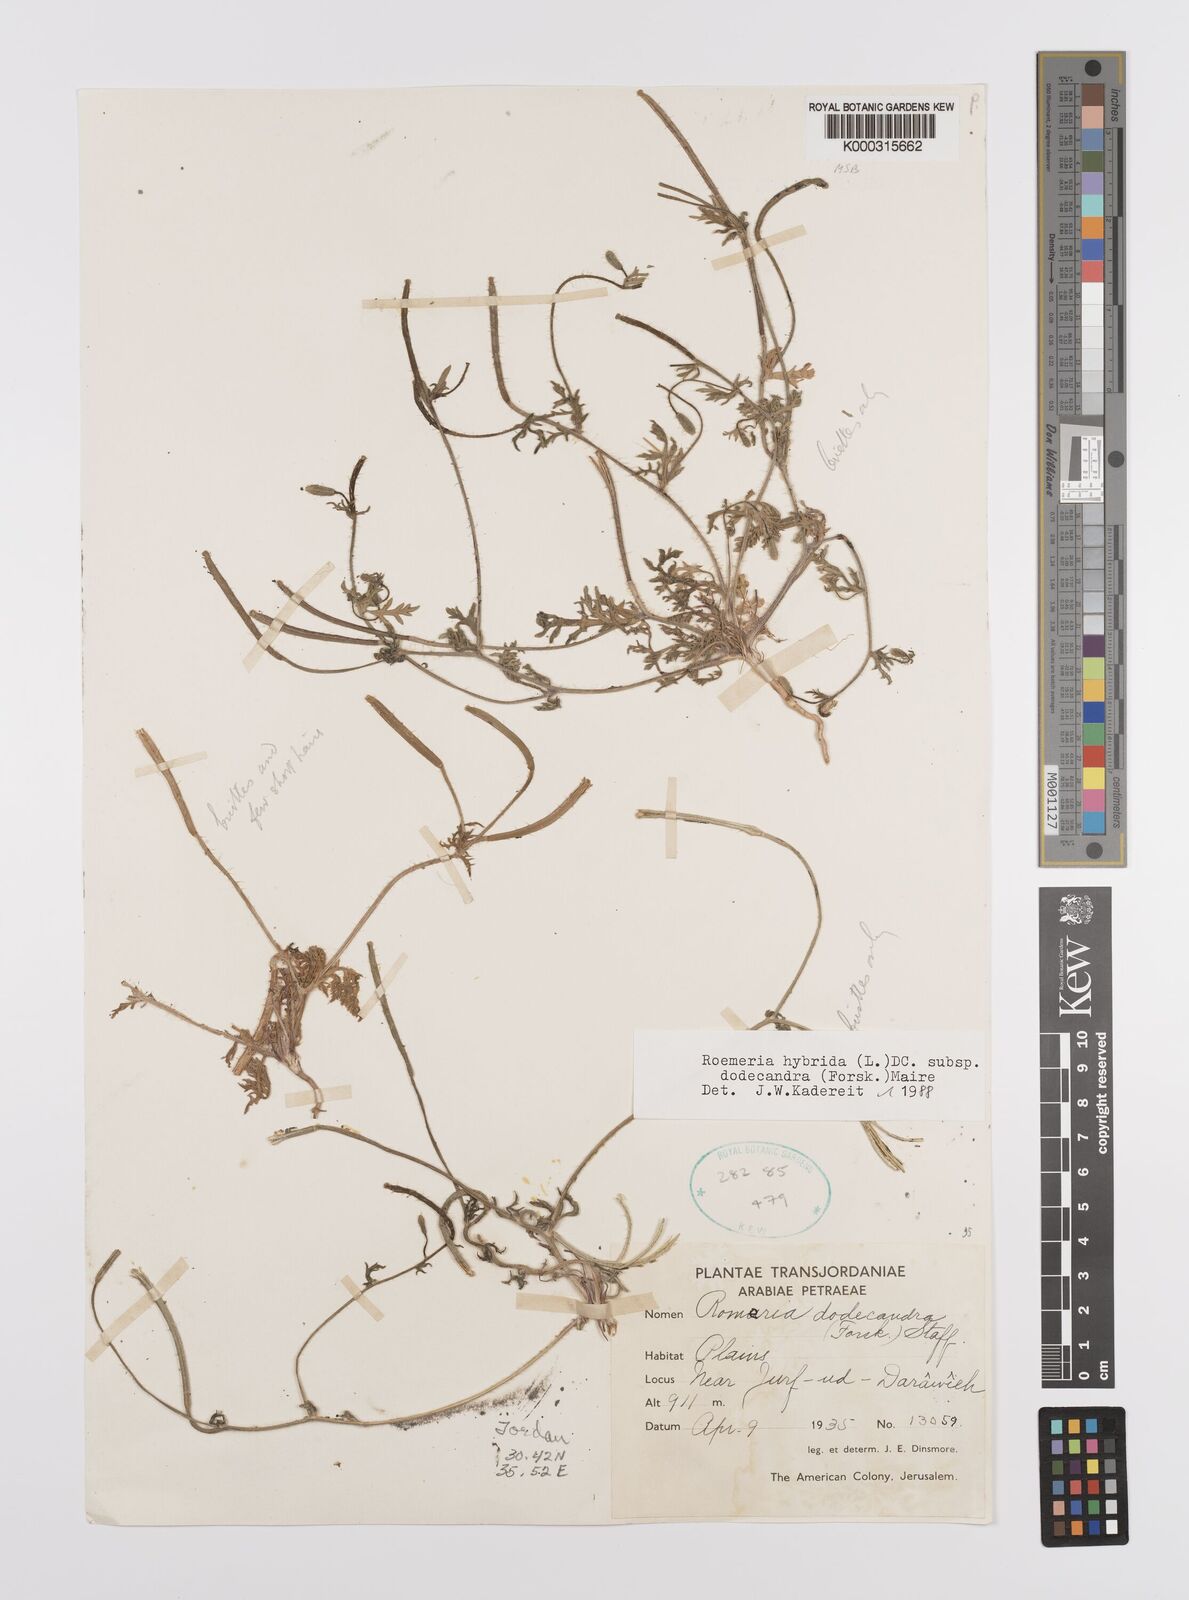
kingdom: Plantae
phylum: Tracheophyta
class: Magnoliopsida
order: Ranunculales
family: Papaveraceae
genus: Roemeria
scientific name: Roemeria hybrida
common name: Violet horned-poppy
